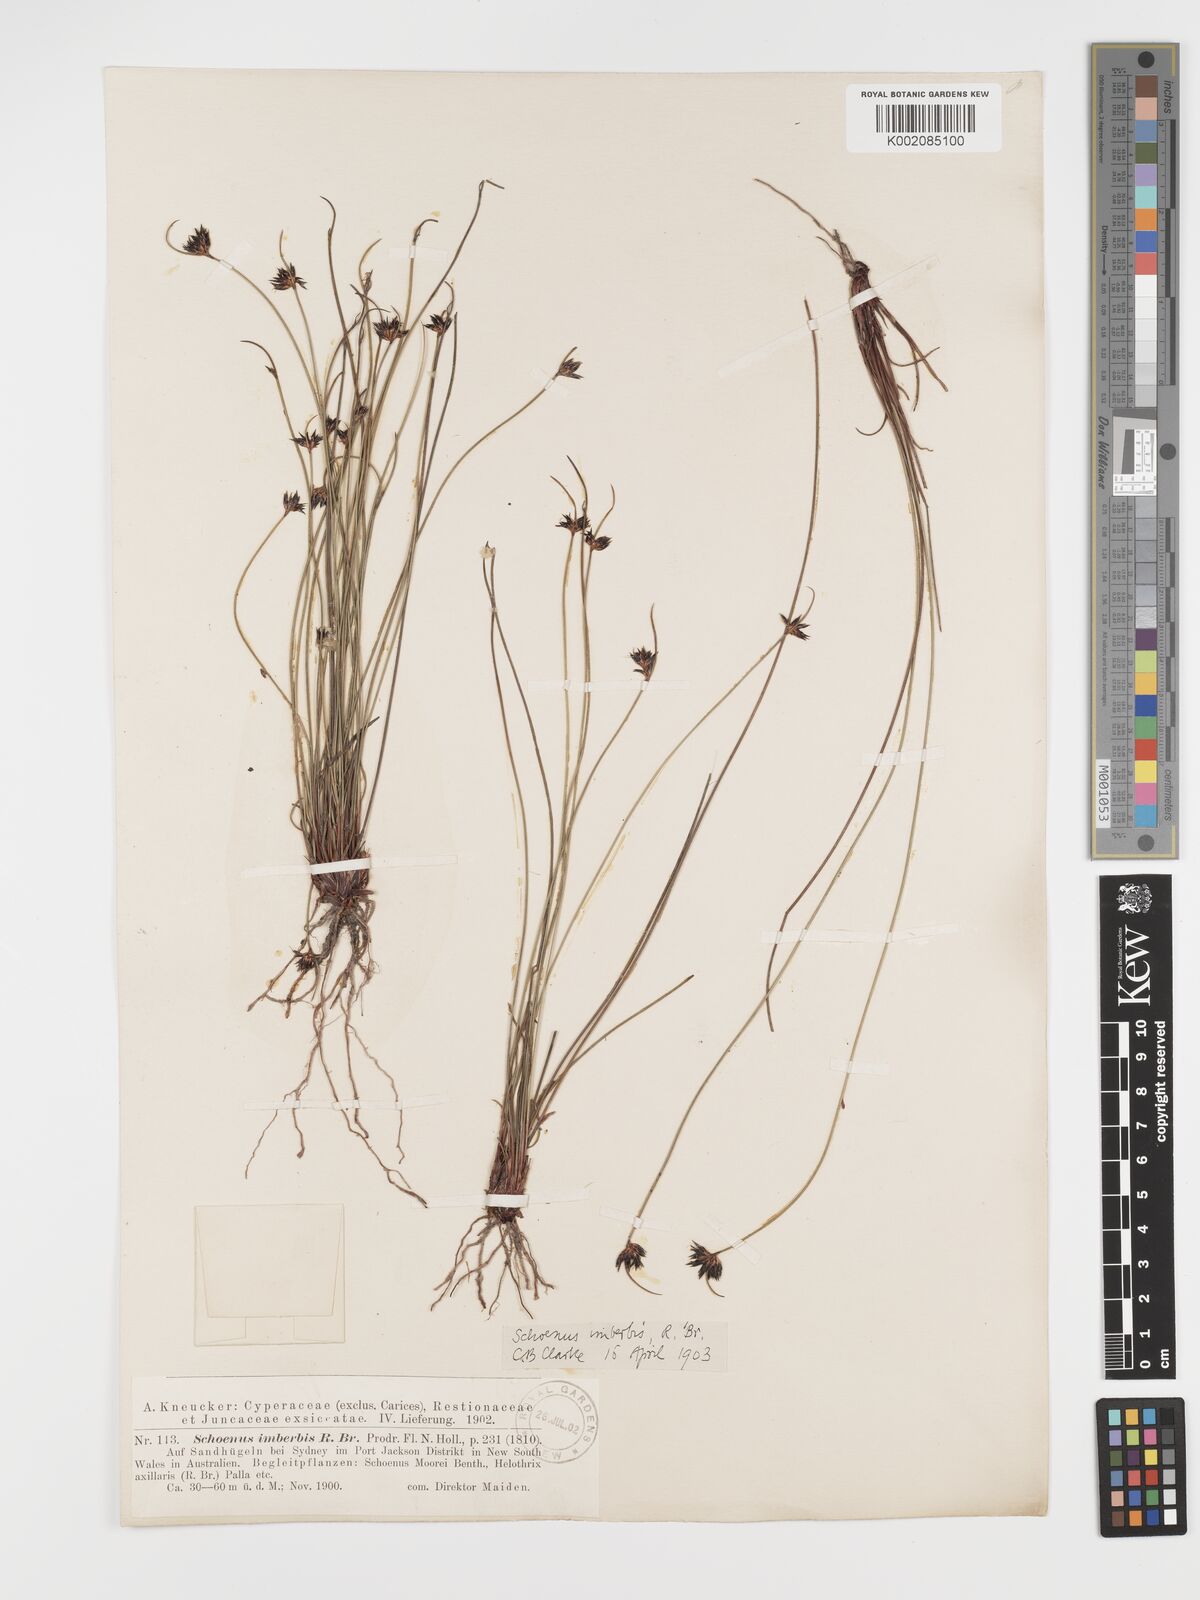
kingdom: Plantae
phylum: Tracheophyta
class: Liliopsida
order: Poales
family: Cyperaceae
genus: Schoenus
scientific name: Schoenus imberbis
